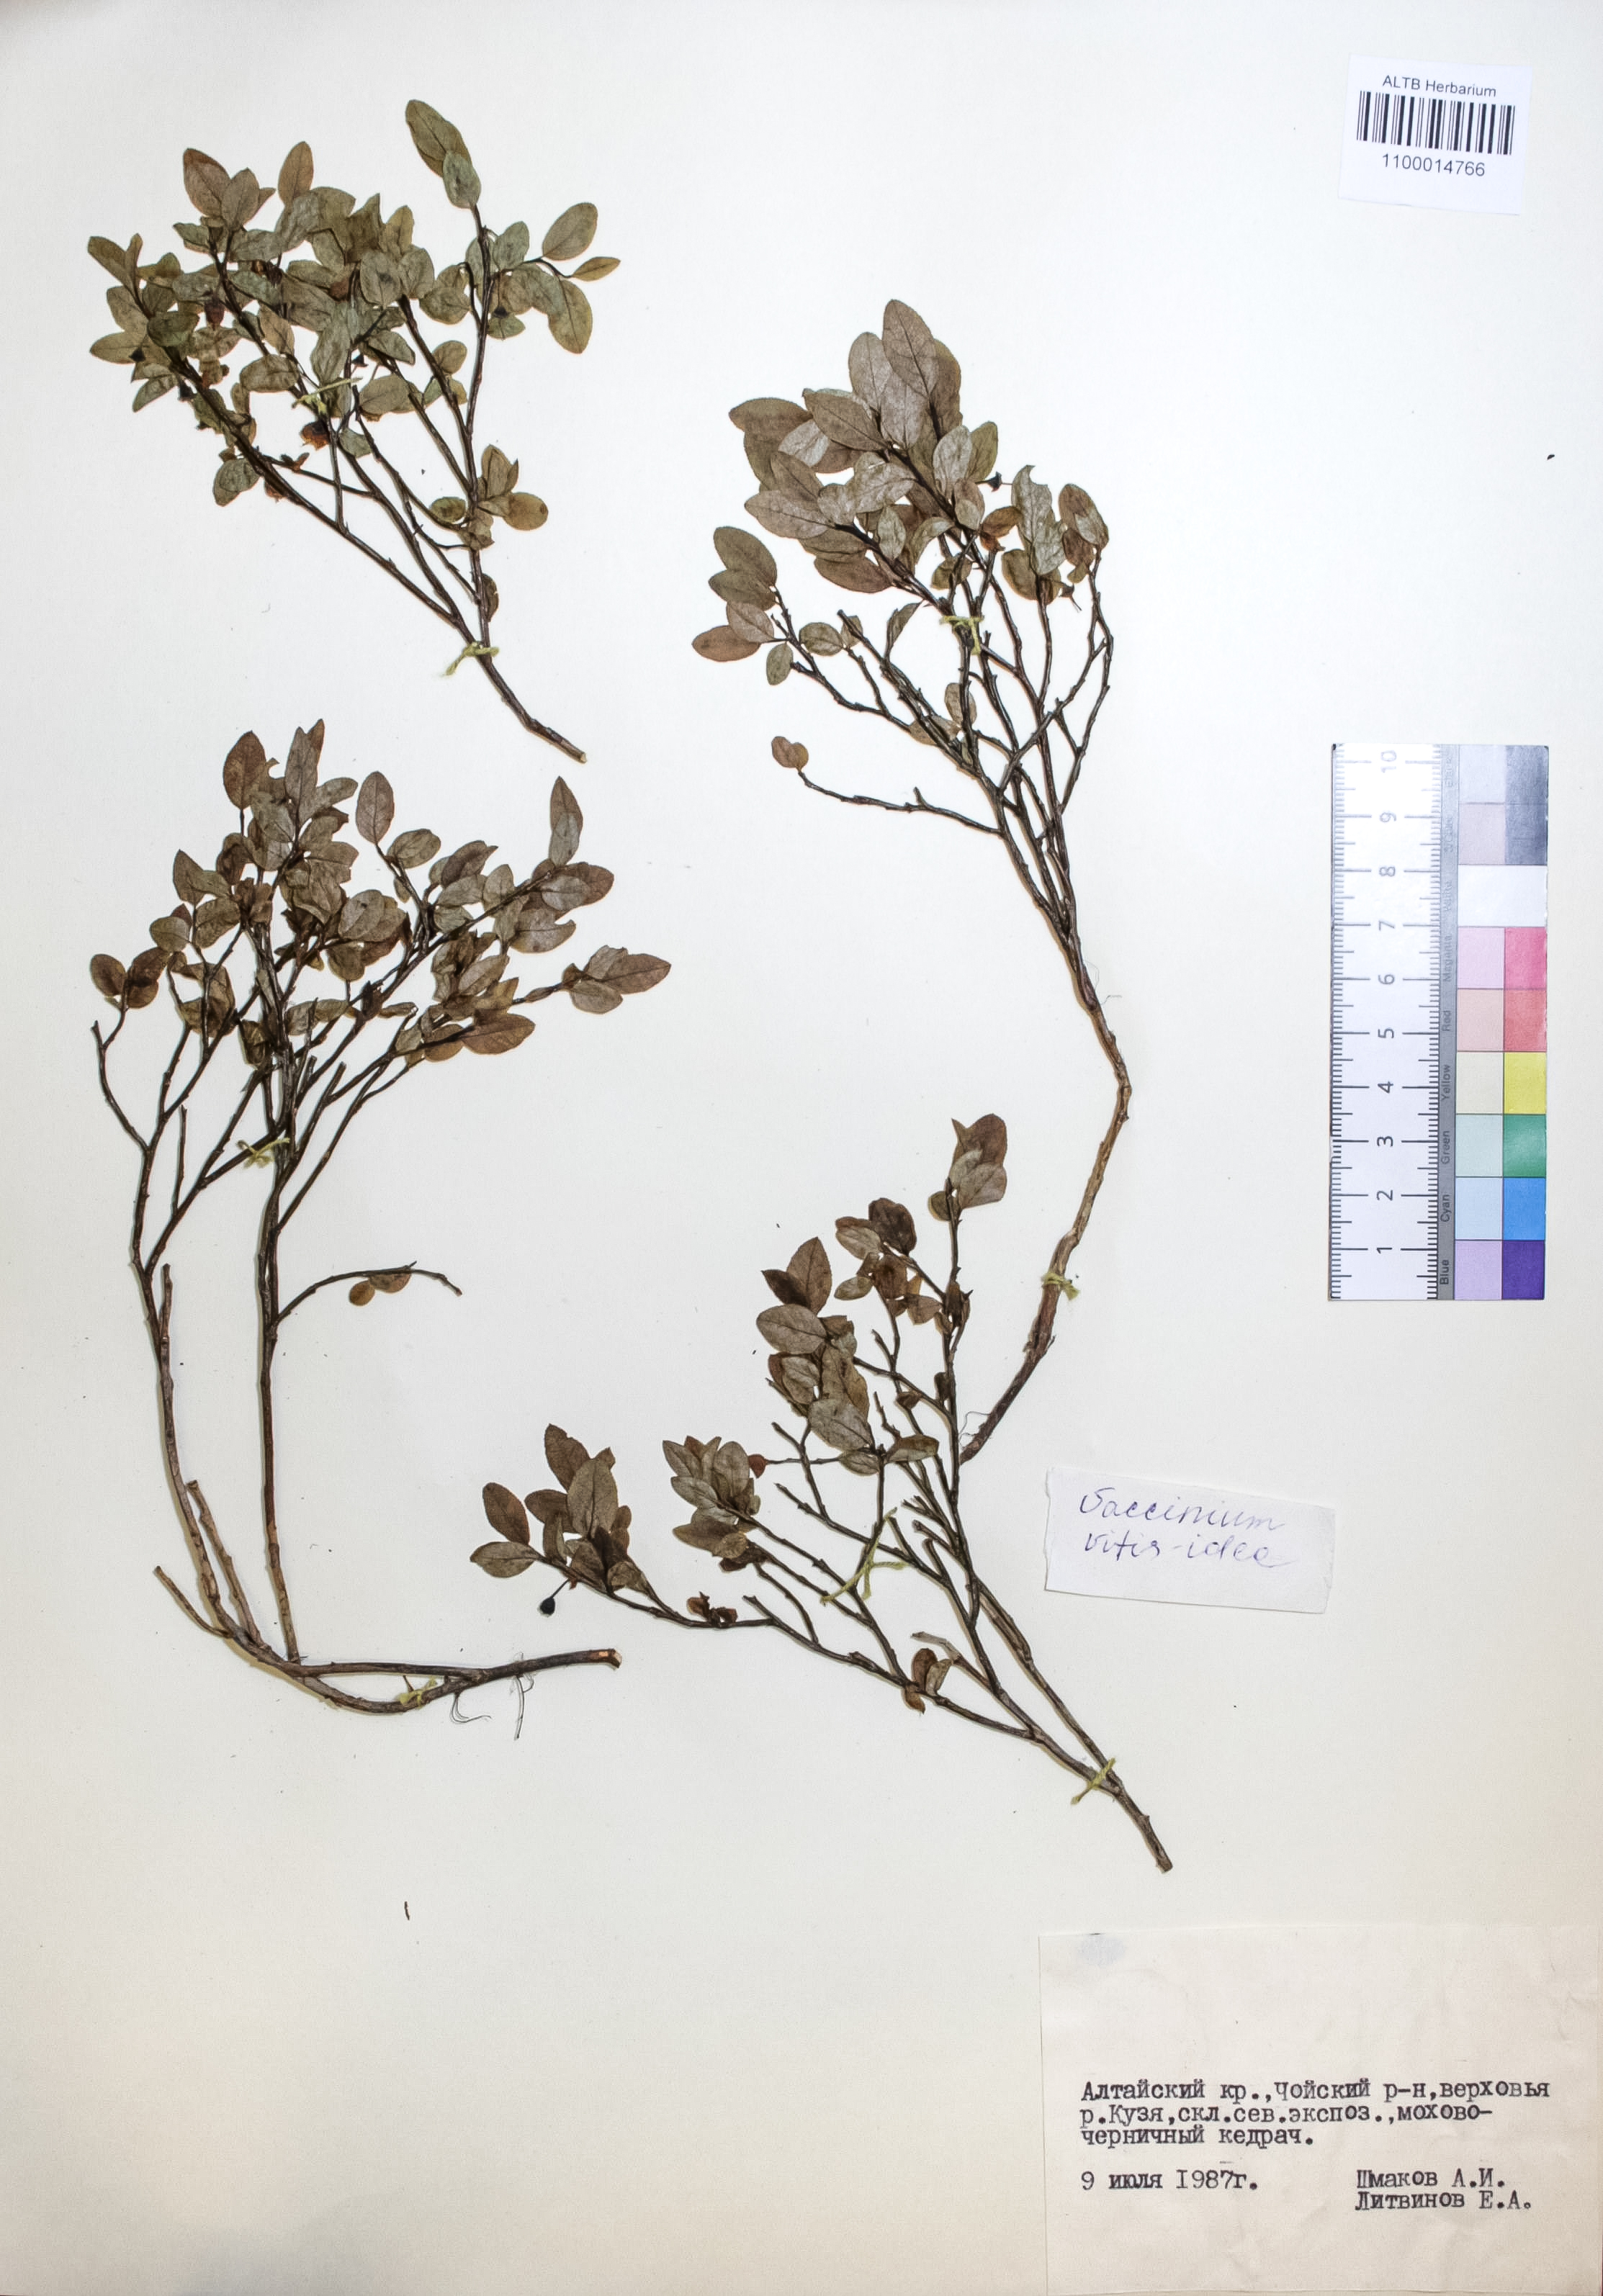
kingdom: Plantae
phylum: Tracheophyta
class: Magnoliopsida
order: Ericales
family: Ericaceae
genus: Vaccinium
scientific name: Vaccinium vitis-idaea
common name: Cowberry
